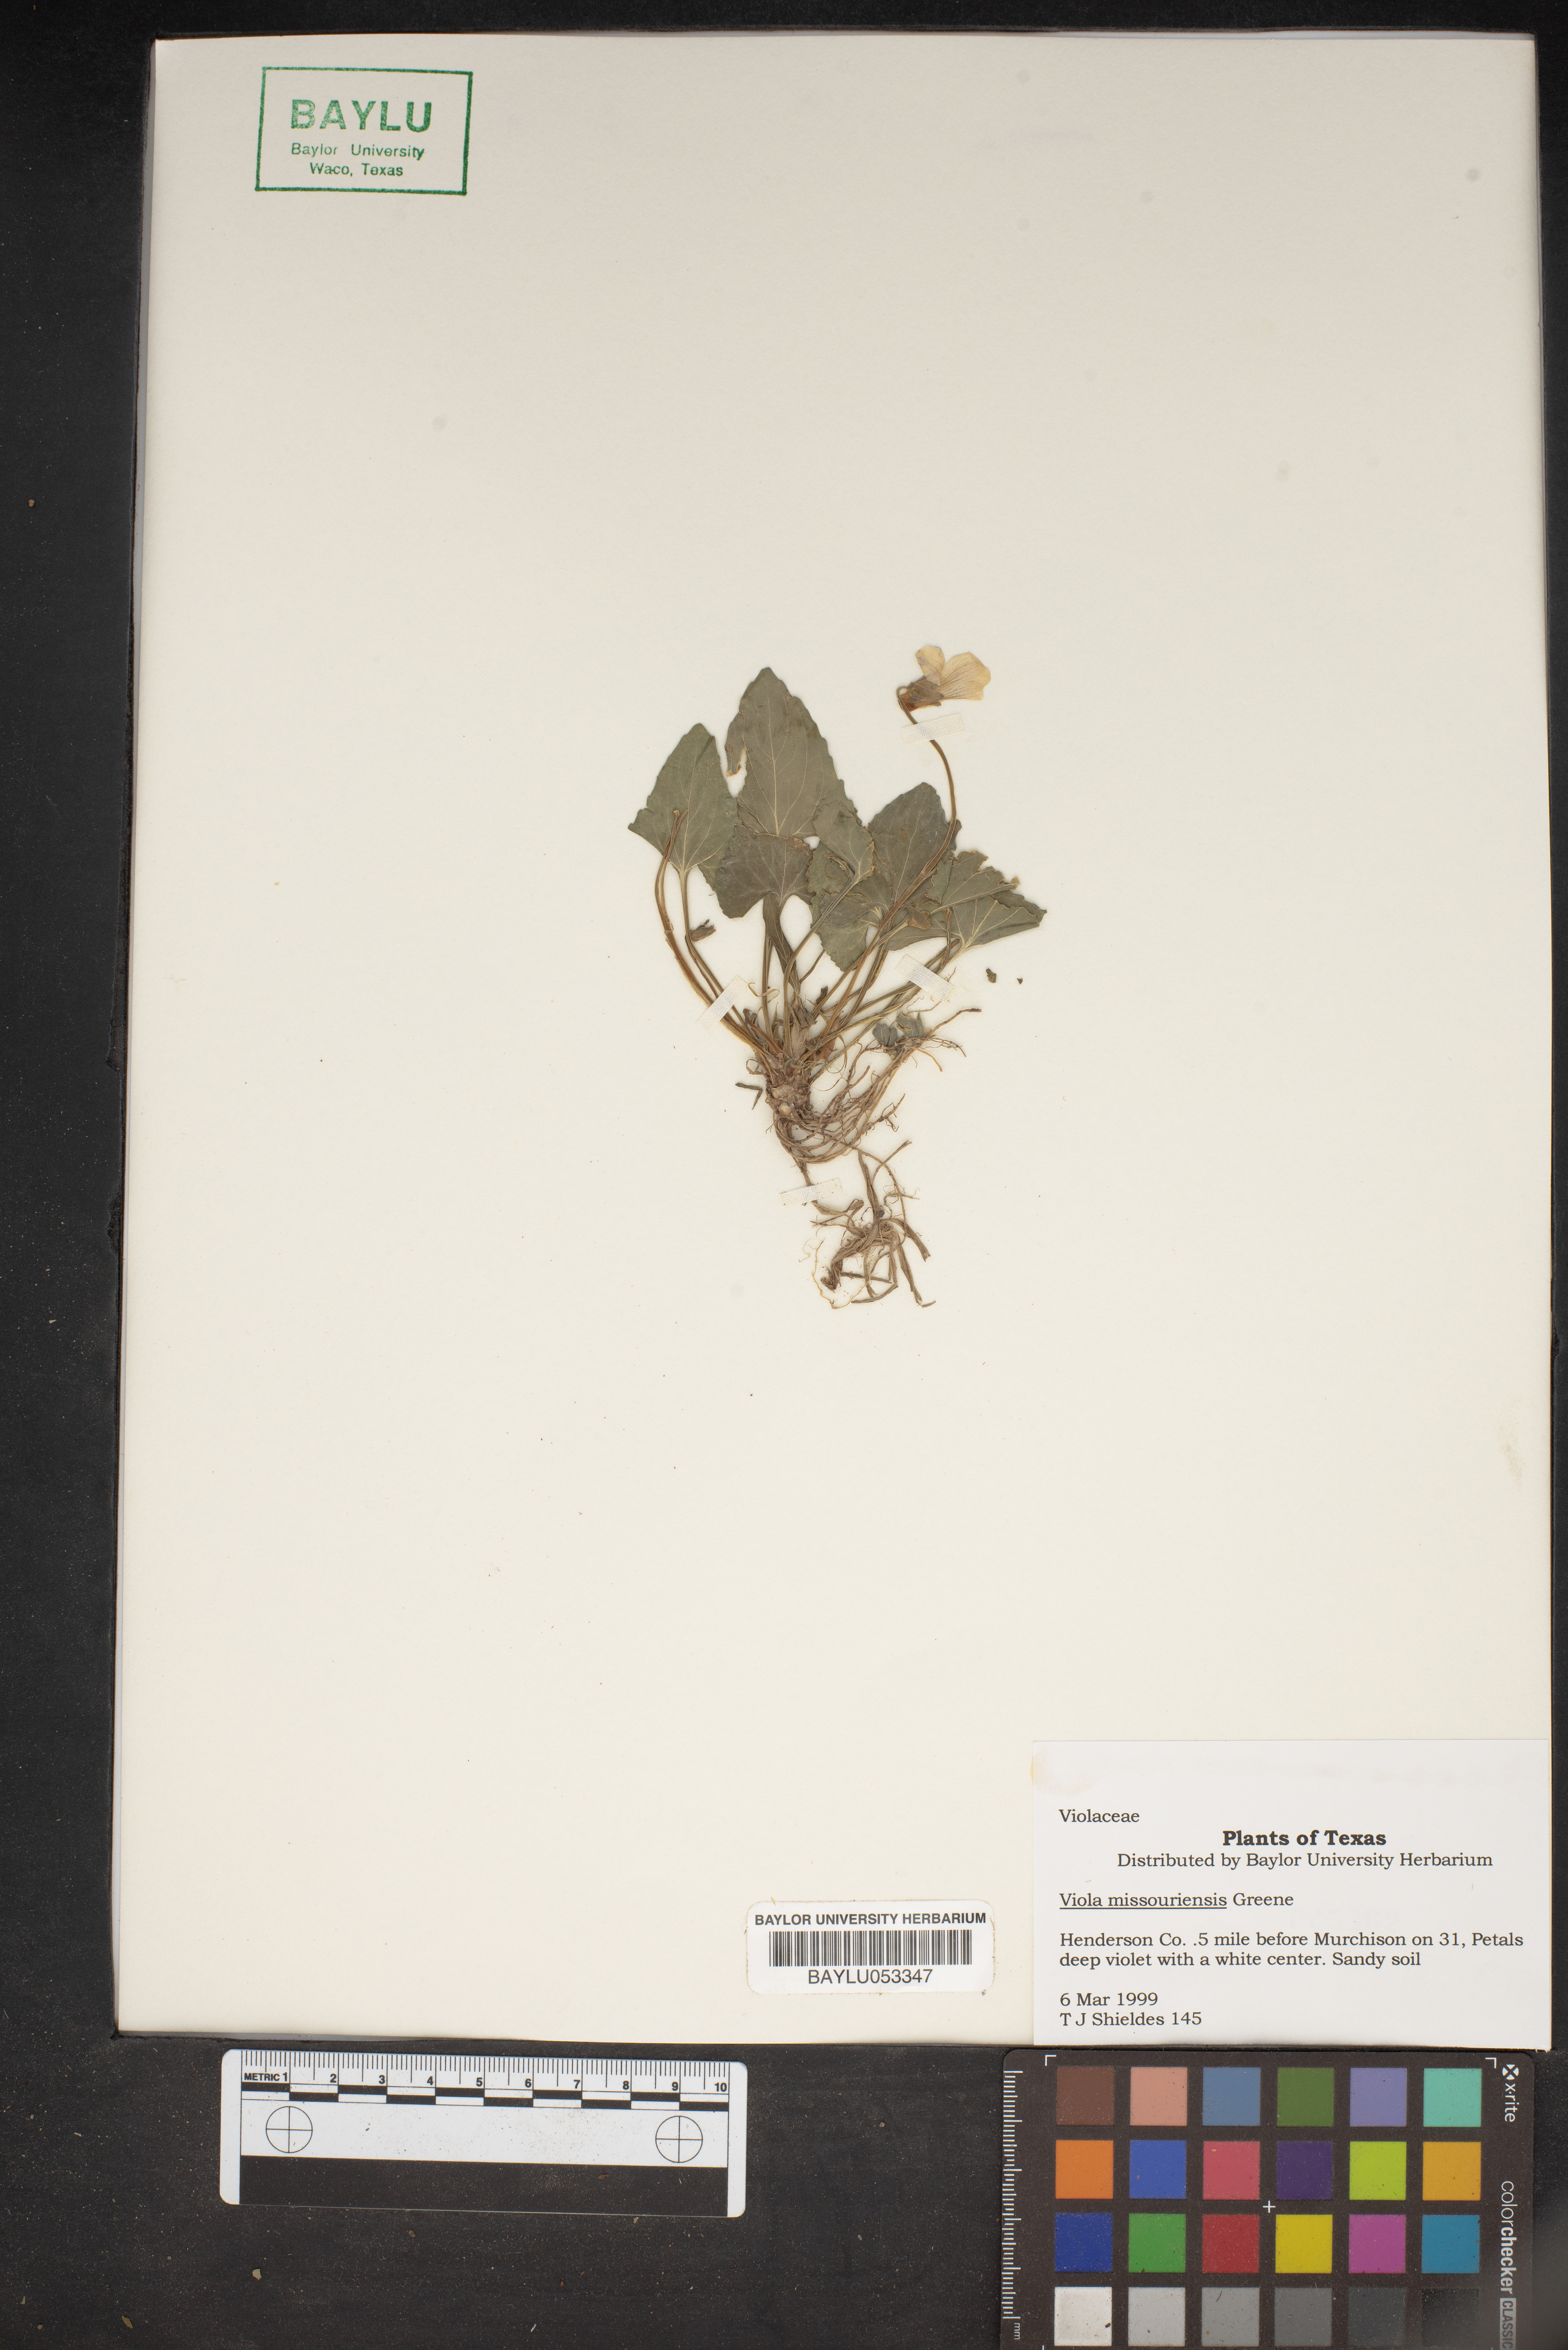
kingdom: Plantae
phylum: Tracheophyta
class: Magnoliopsida
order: Malpighiales
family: Violaceae
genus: Viola
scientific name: Viola missouriensis
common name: Missouri violet
